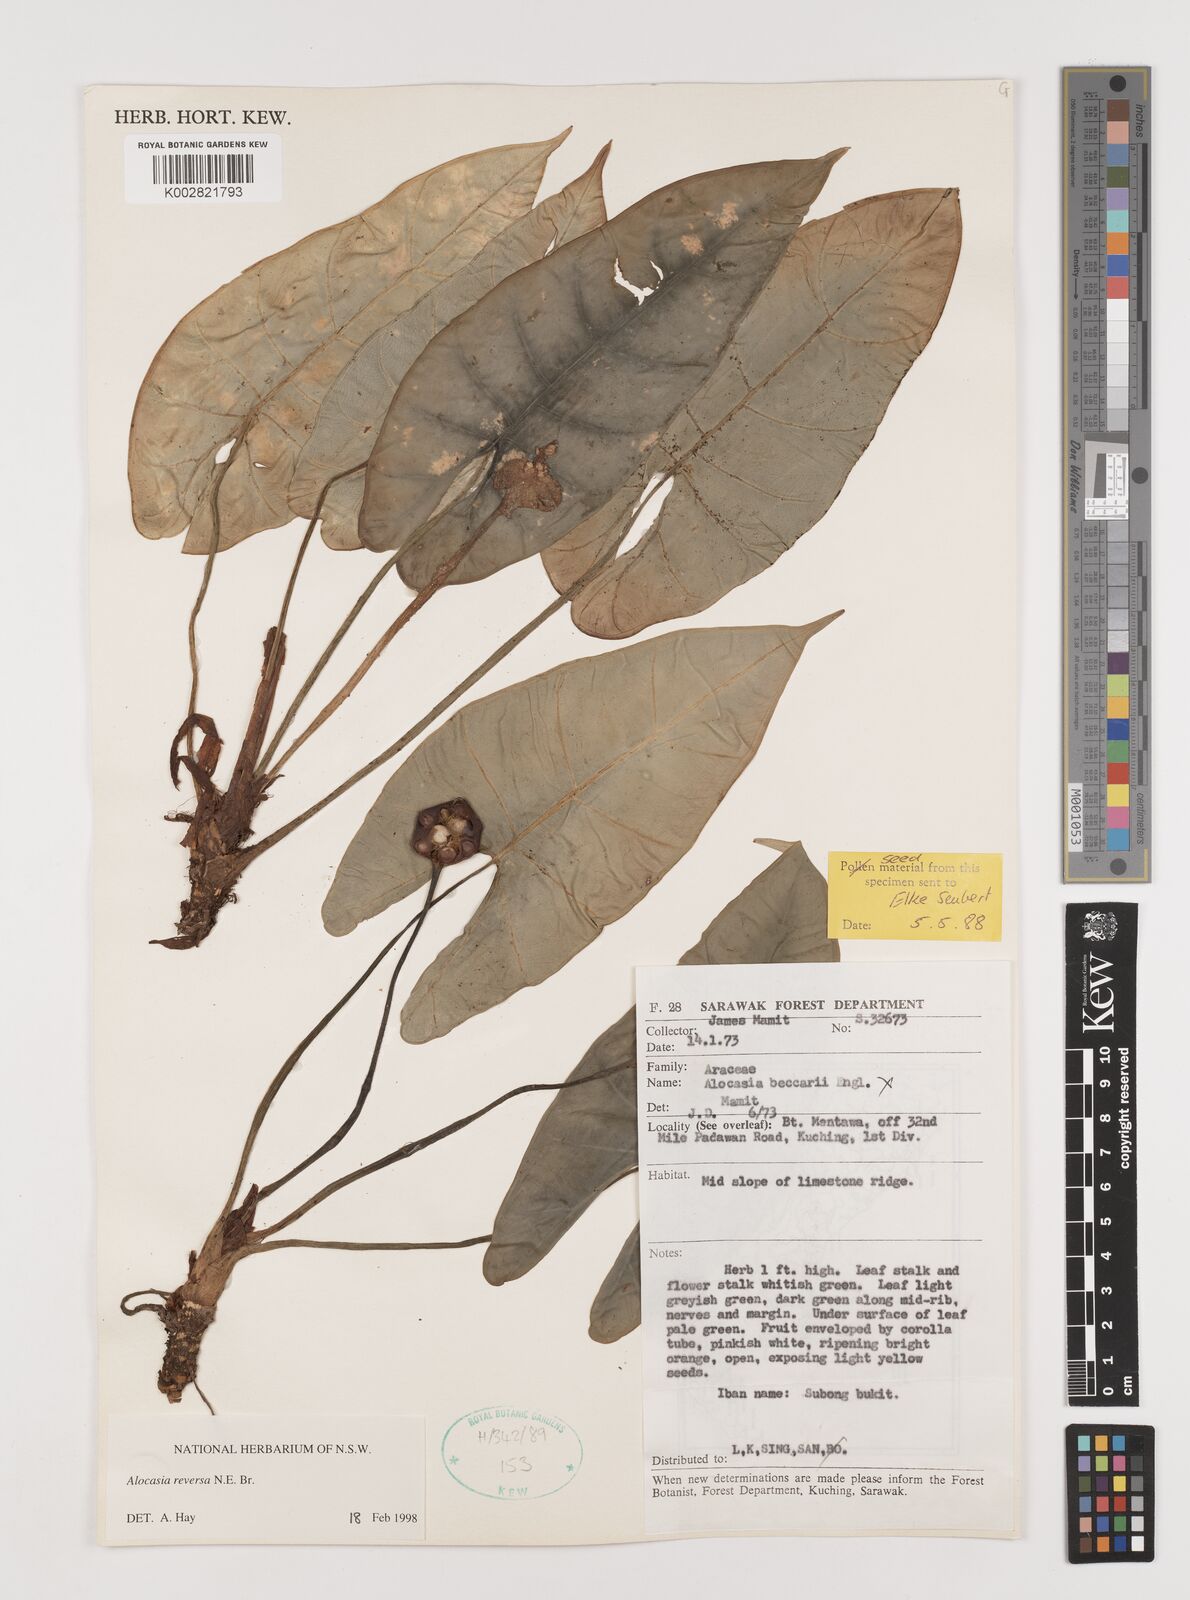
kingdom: Plantae
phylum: Tracheophyta
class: Liliopsida
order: Alismatales
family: Araceae
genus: Alocasia
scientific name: Alocasia reversa
